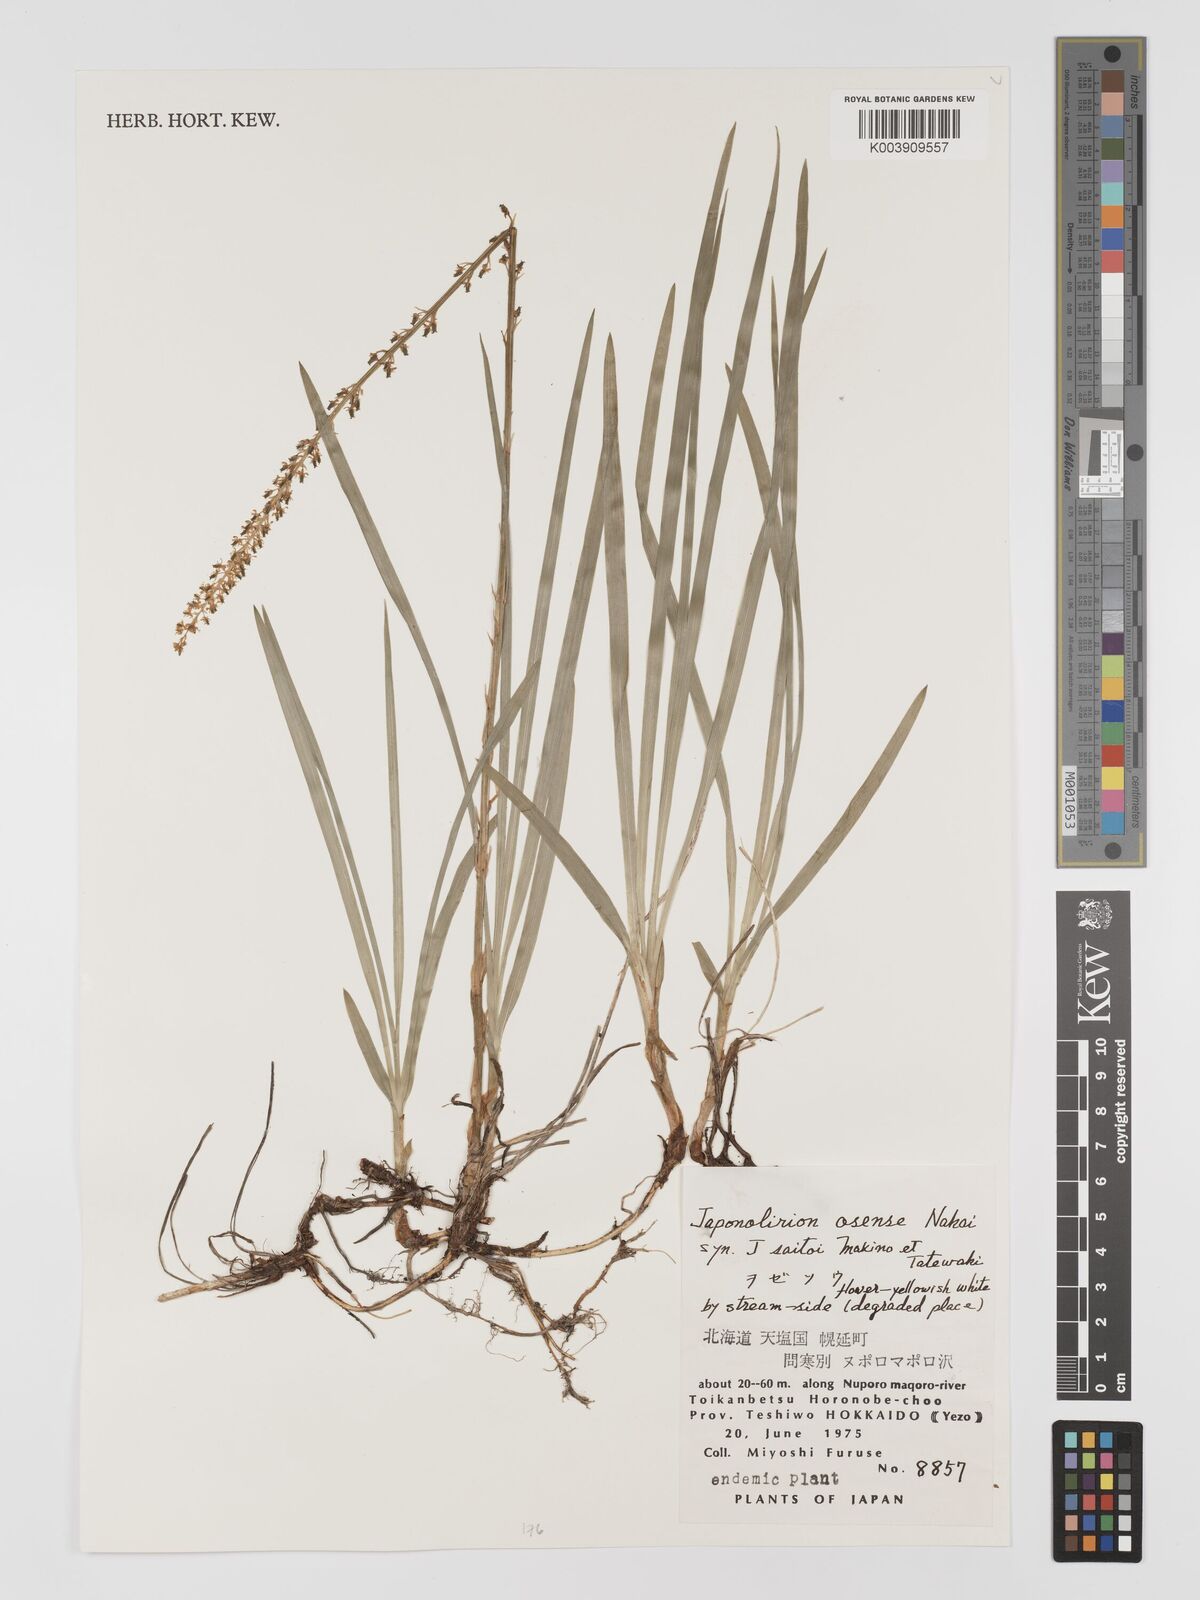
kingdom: Plantae
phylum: Tracheophyta
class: Liliopsida
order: Petrosaviales
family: Petrosaviaceae
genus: Japonolirion
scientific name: Japonolirion osense
